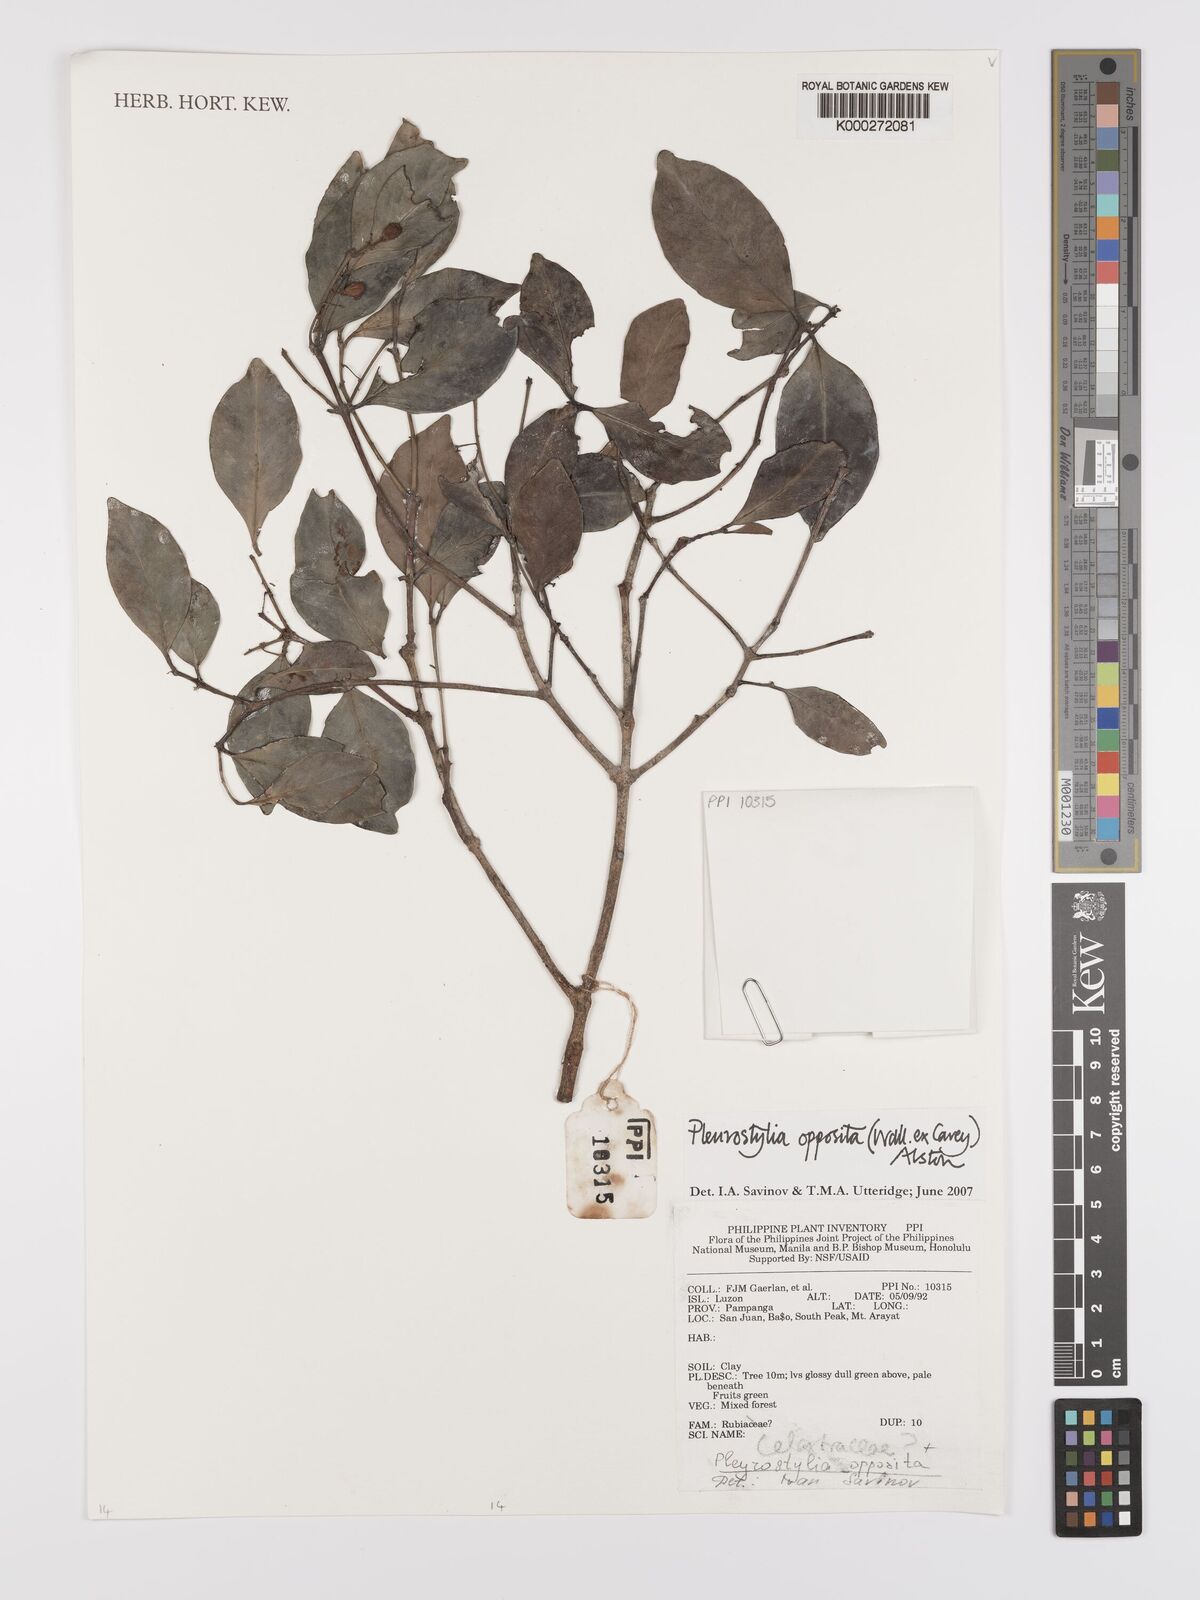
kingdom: Plantae
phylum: Tracheophyta
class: Magnoliopsida
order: Celastrales
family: Celastraceae
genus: Pleurostylia
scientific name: Pleurostylia opposita
